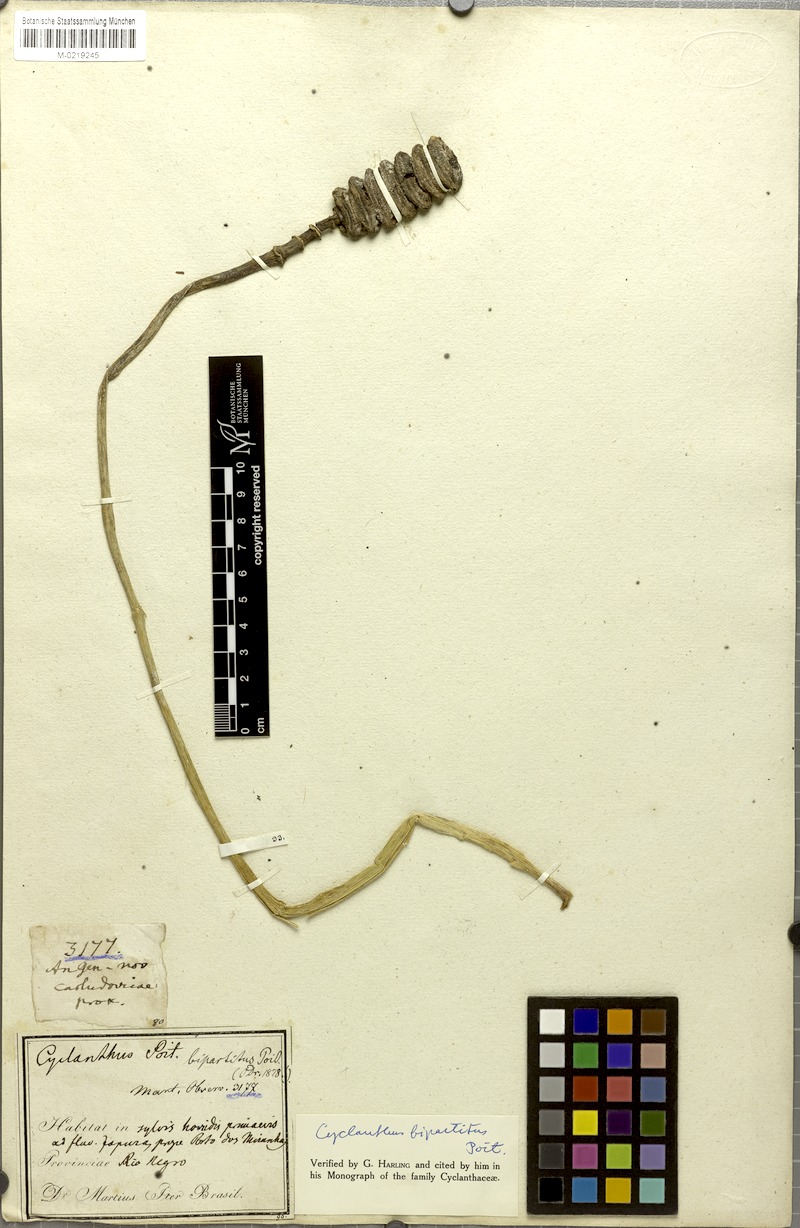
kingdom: Plantae
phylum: Tracheophyta
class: Liliopsida
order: Pandanales
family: Cyclanthaceae
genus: Cyclanthus
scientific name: Cyclanthus bipartitus
